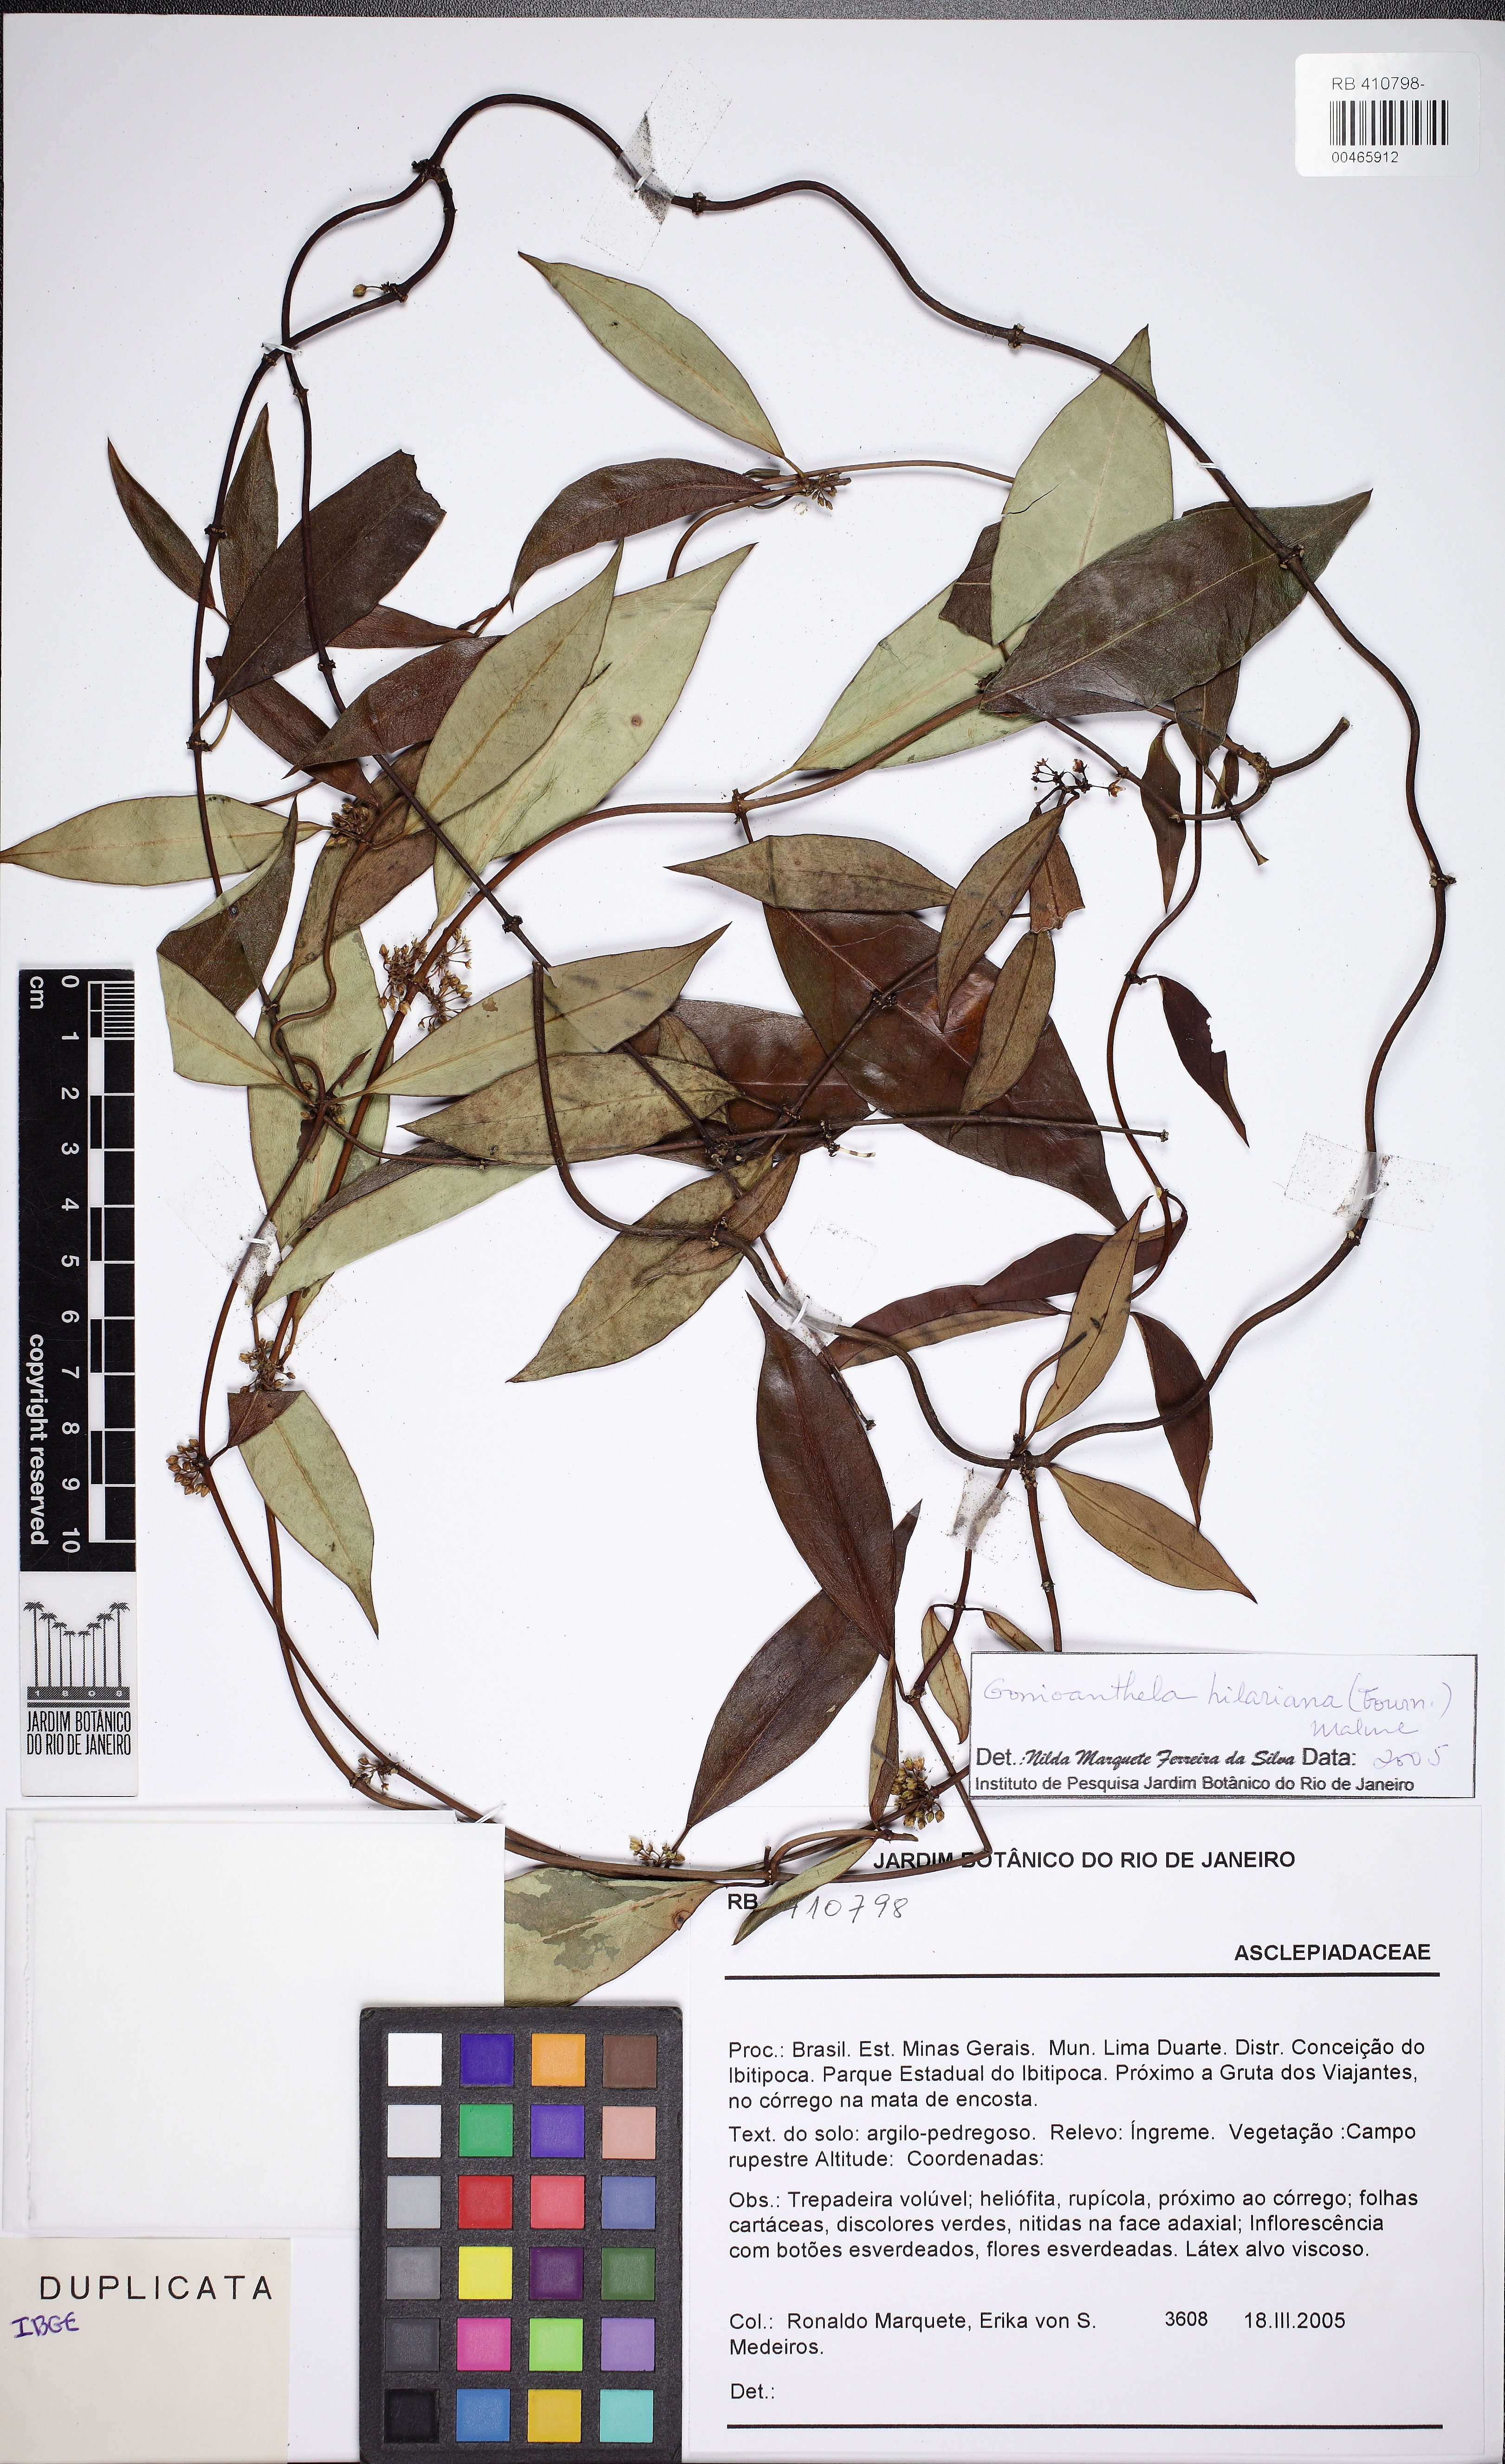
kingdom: Plantae
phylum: Tracheophyta
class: Magnoliopsida
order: Gentianales
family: Apocynaceae
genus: Peplonia
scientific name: Peplonia organensis
